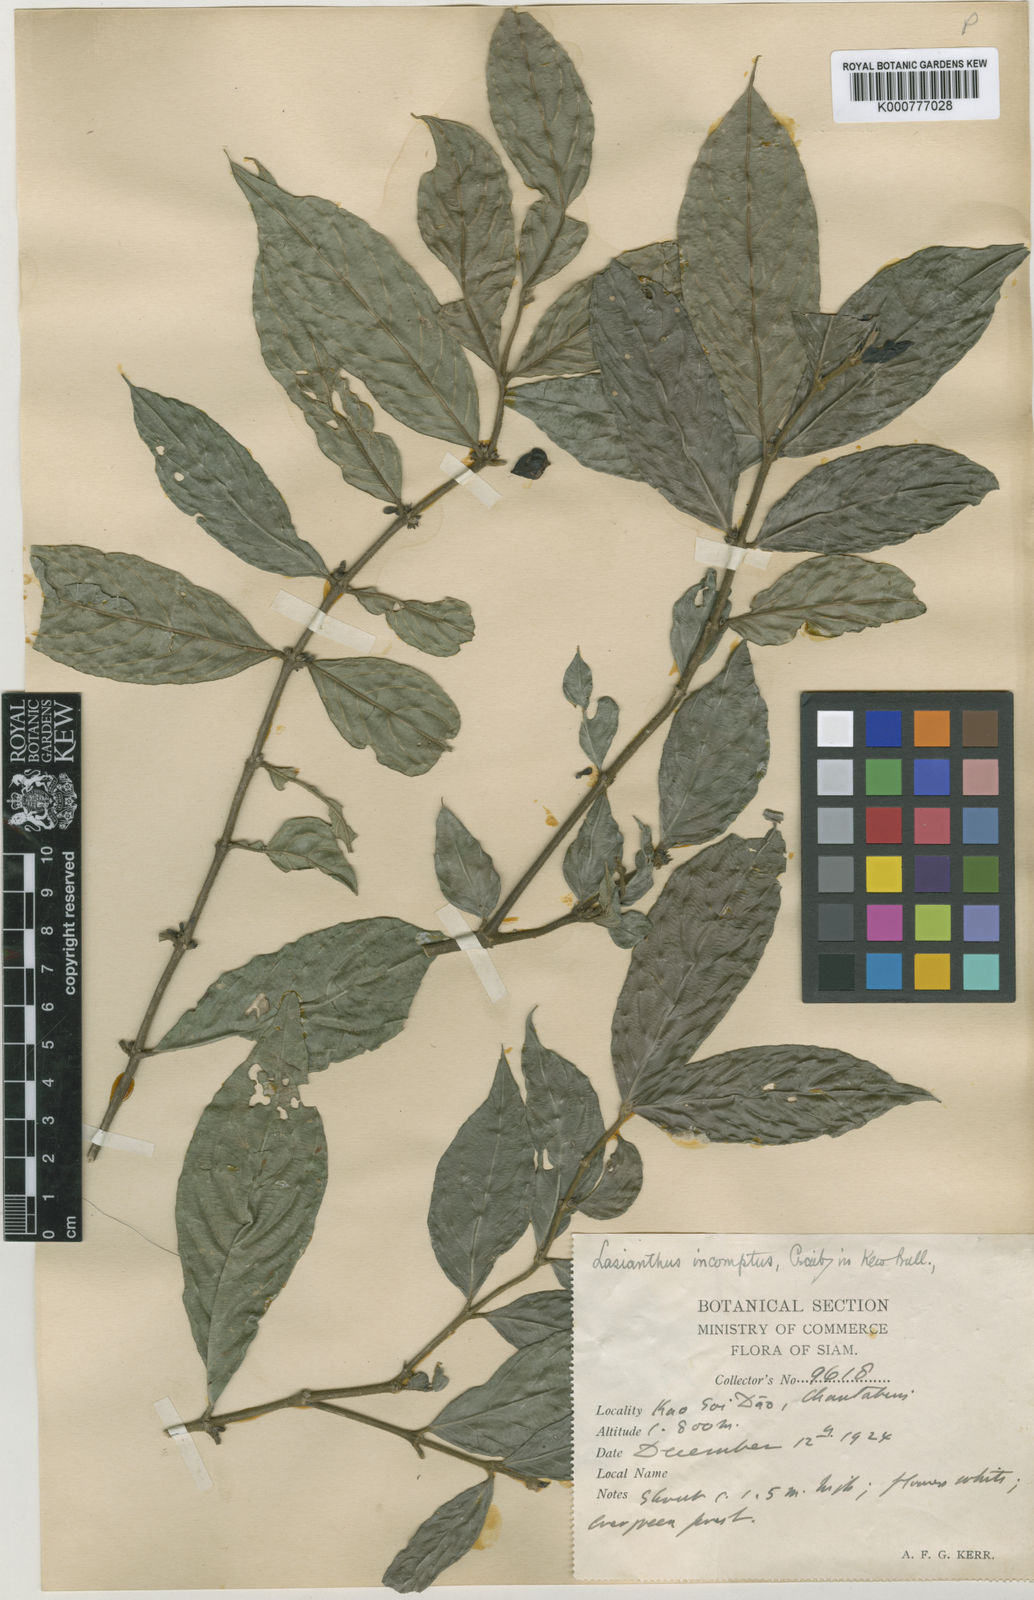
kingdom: Plantae
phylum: Tracheophyta
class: Magnoliopsida
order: Gentianales
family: Rubiaceae
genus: Lasianthus
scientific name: Lasianthus formosensis
